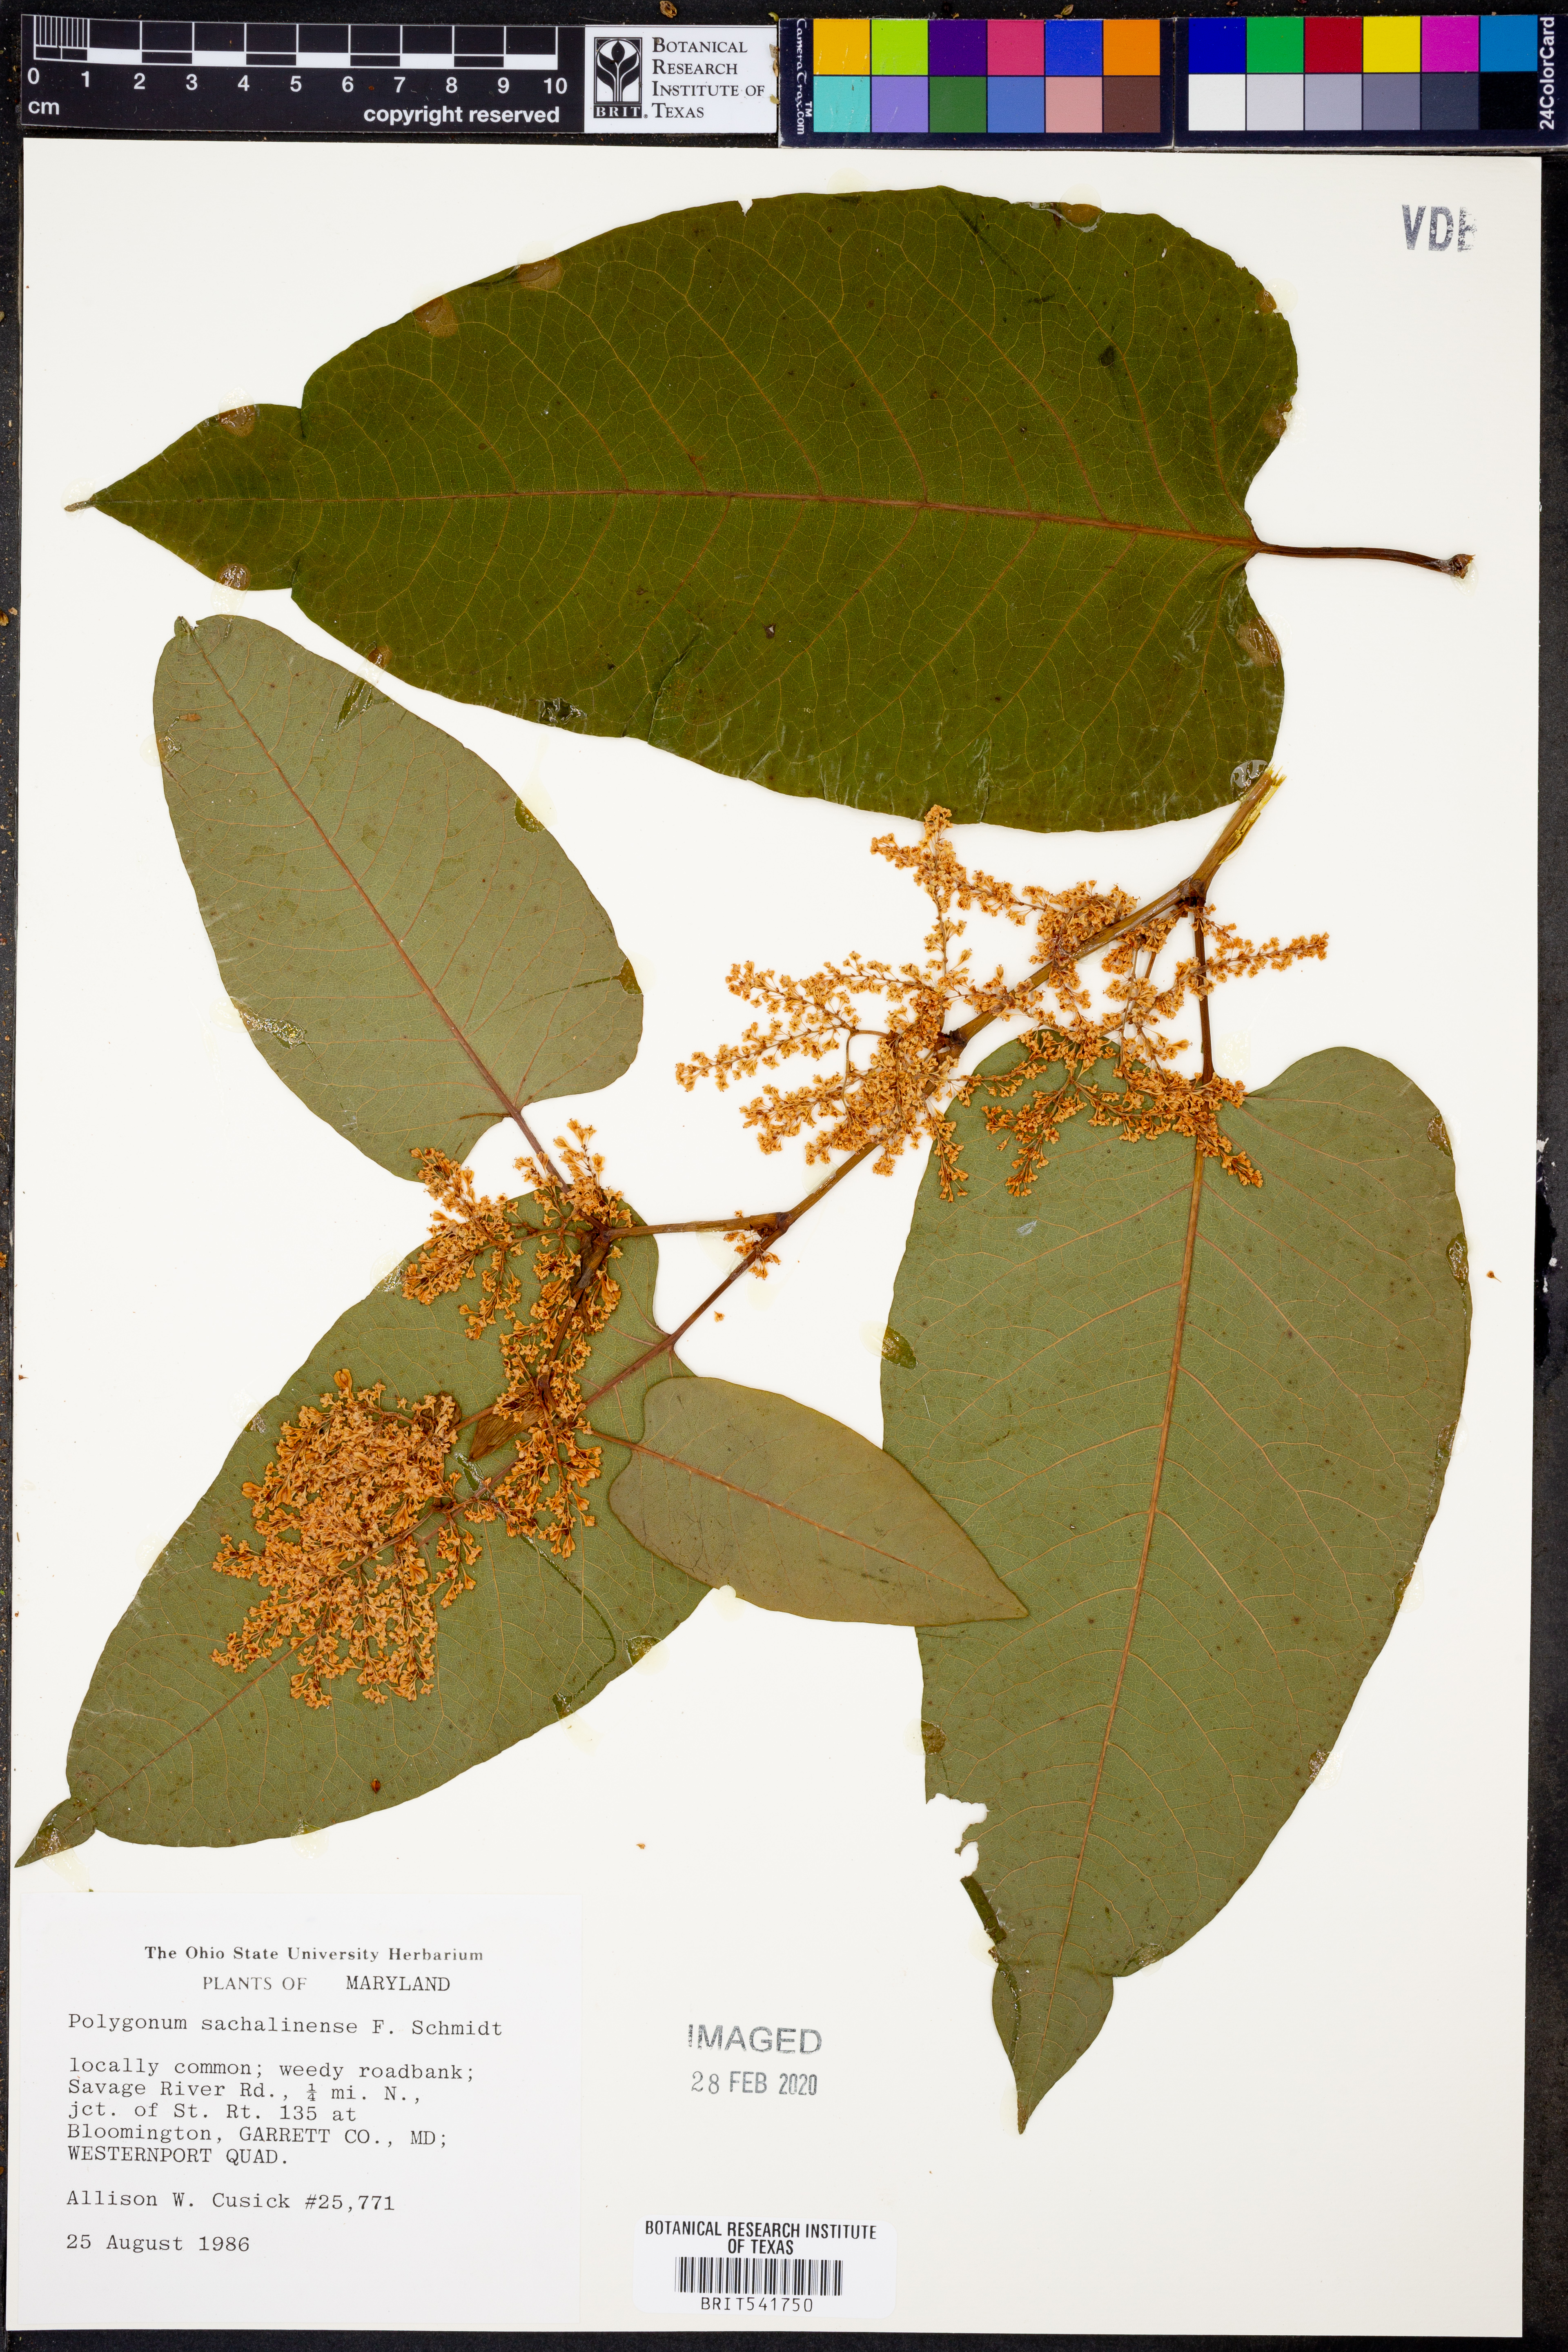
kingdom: Plantae
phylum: Tracheophyta
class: Magnoliopsida
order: Caryophyllales
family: Polygonaceae
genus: Reynoutria
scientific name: Reynoutria sachalinensis
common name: Giant knotweed
